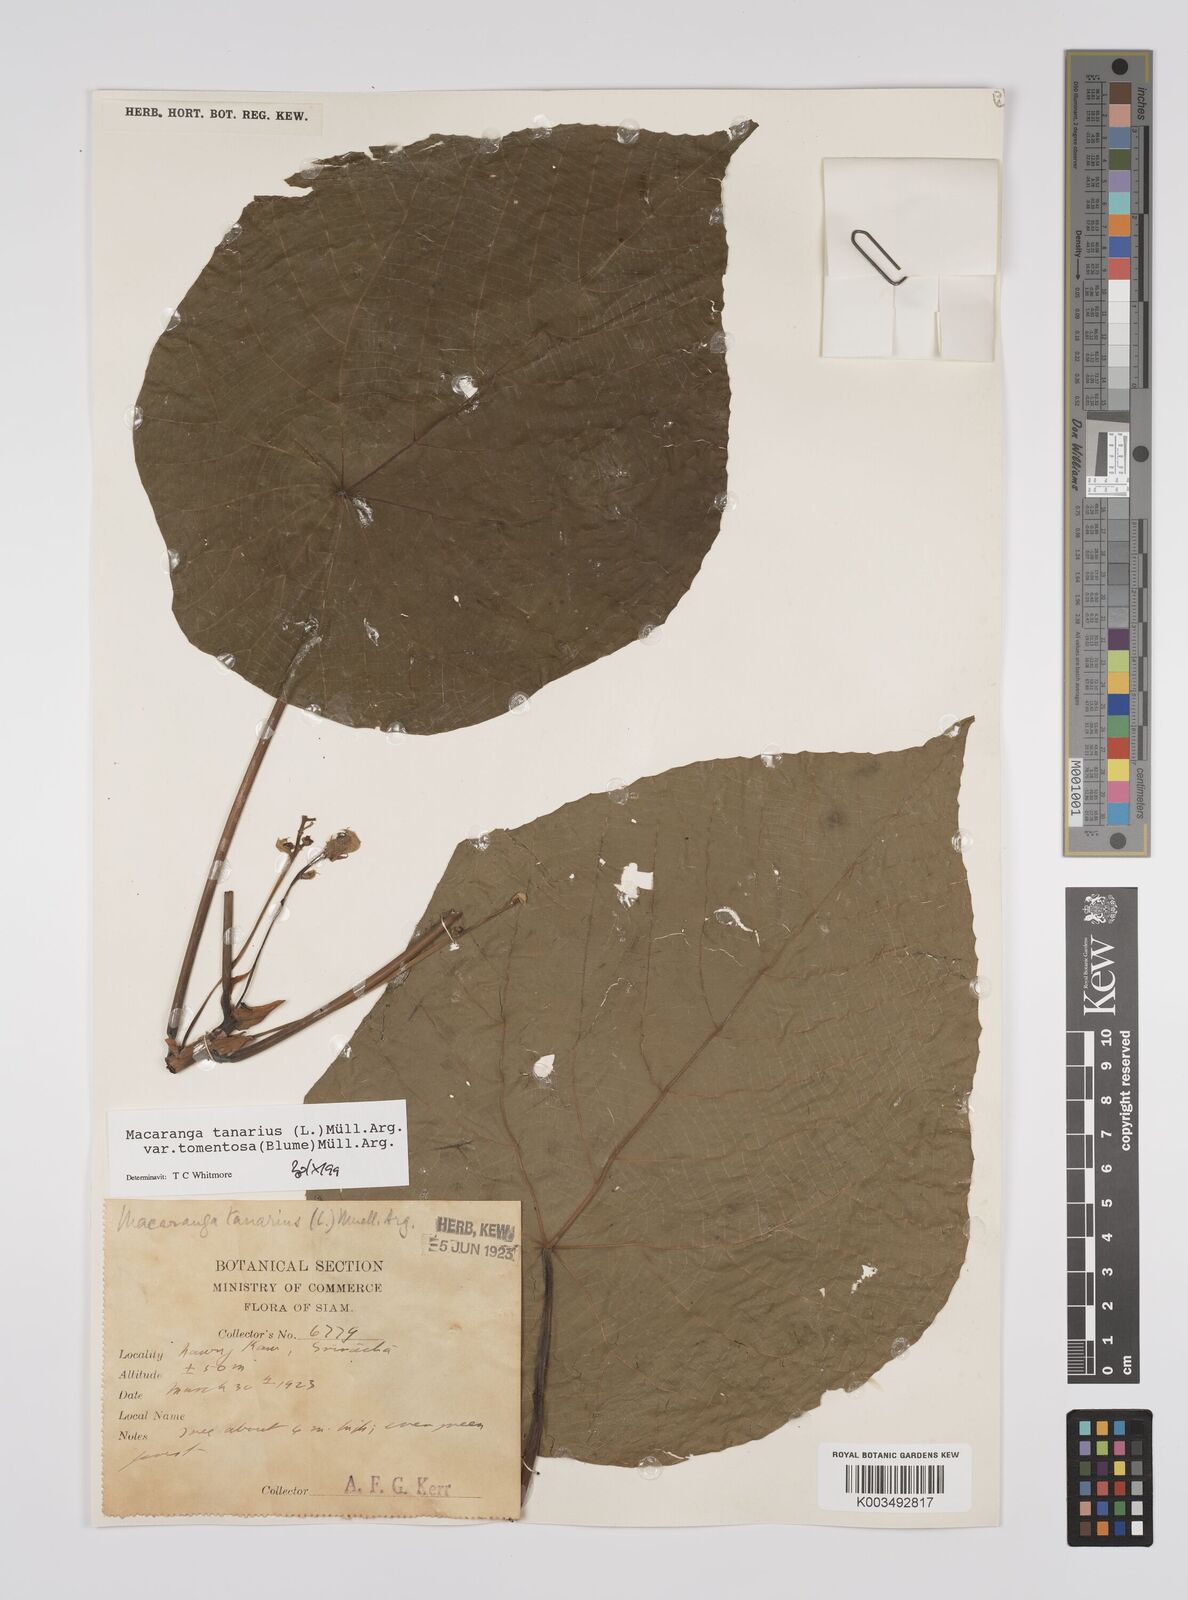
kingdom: Plantae
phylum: Tracheophyta
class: Magnoliopsida
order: Malpighiales
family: Euphorbiaceae
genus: Macaranga
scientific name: Macaranga tanarius
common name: Parasol leaf tree
